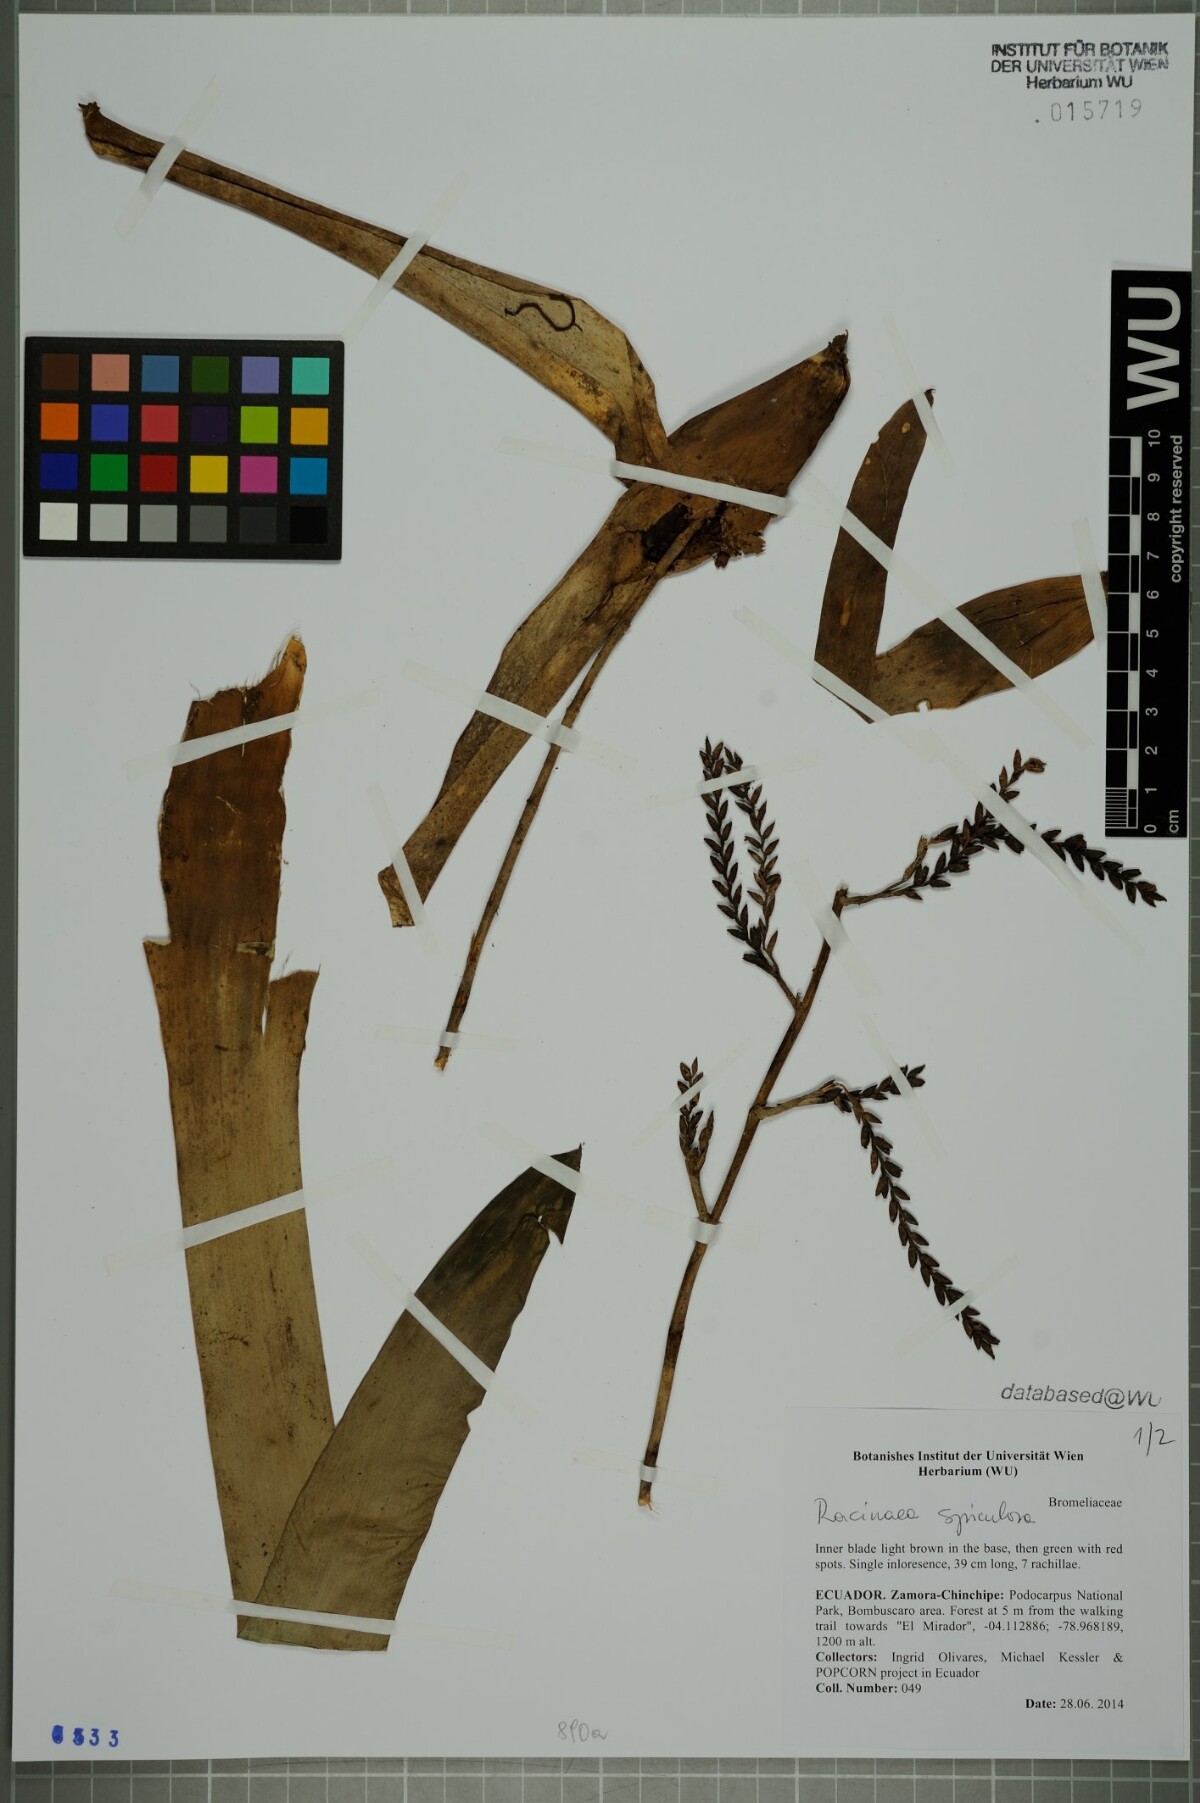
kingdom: Plantae
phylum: Tracheophyta
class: Liliopsida
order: Poales
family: Bromeliaceae
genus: Racinaea
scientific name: Racinaea spiculosa
